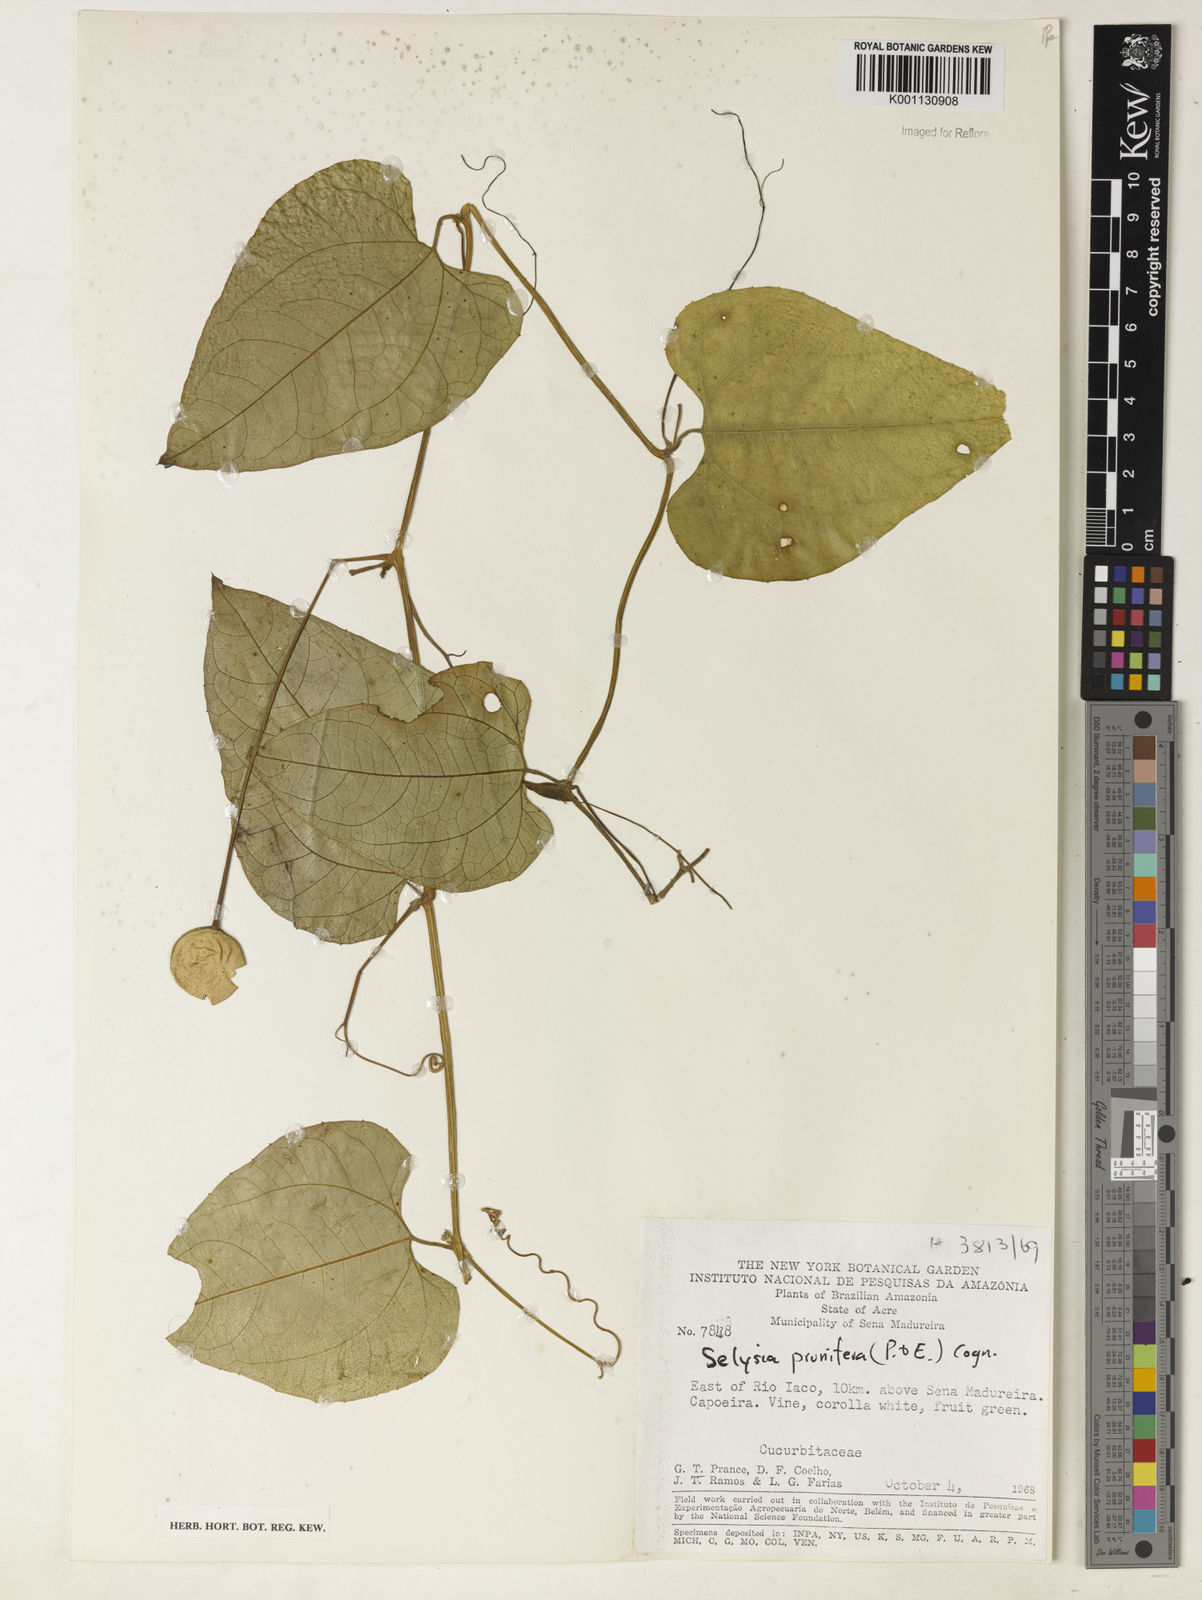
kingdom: Plantae
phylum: Tracheophyta
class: Magnoliopsida
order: Cucurbitales
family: Cucurbitaceae
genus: Cayaponia
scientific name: Cayaponia prunifera
